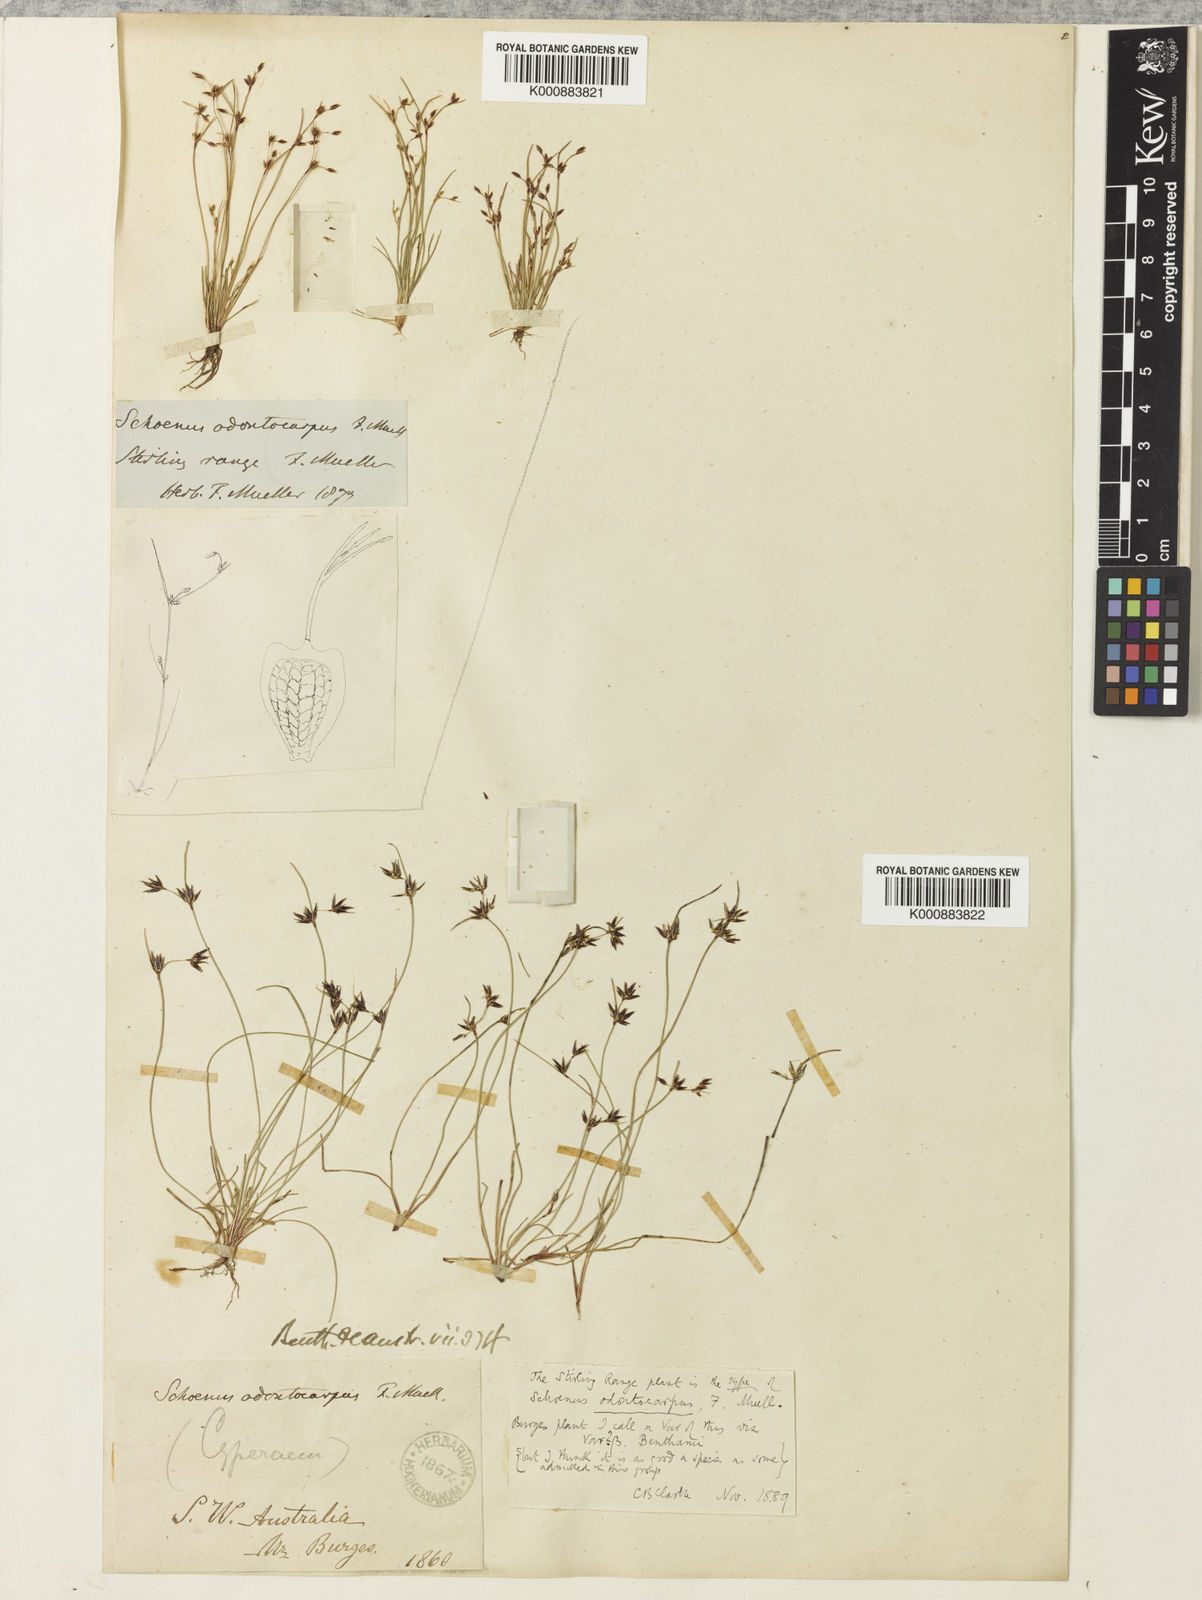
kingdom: Plantae
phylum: Tracheophyta
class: Liliopsida
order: Poales
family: Cyperaceae
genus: Schoenus
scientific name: Schoenus odontocarpus
